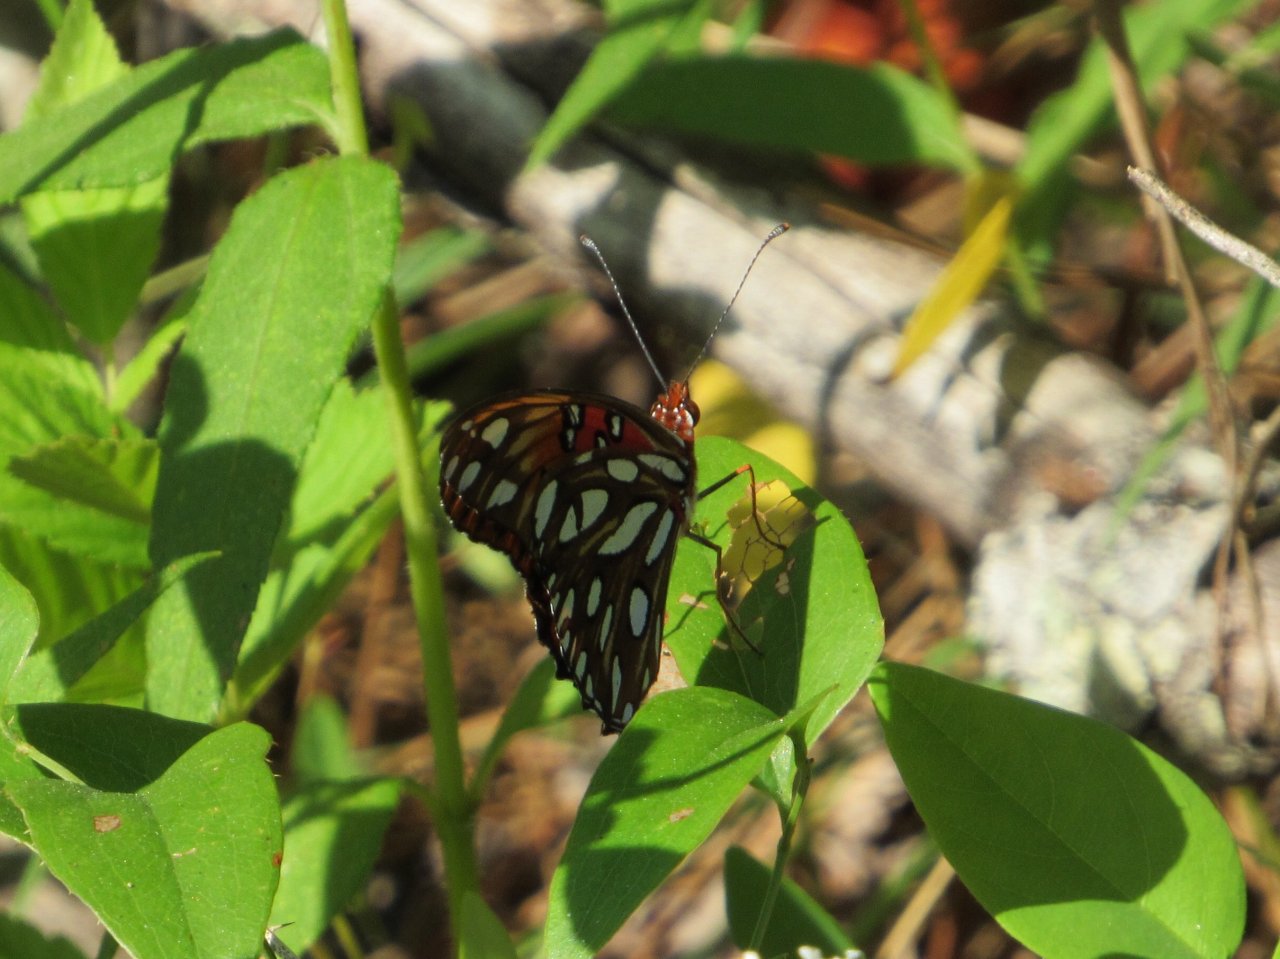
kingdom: Animalia
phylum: Arthropoda
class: Insecta
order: Lepidoptera
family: Nymphalidae
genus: Dione
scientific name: Dione vanillae
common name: Gulf Fritillary
